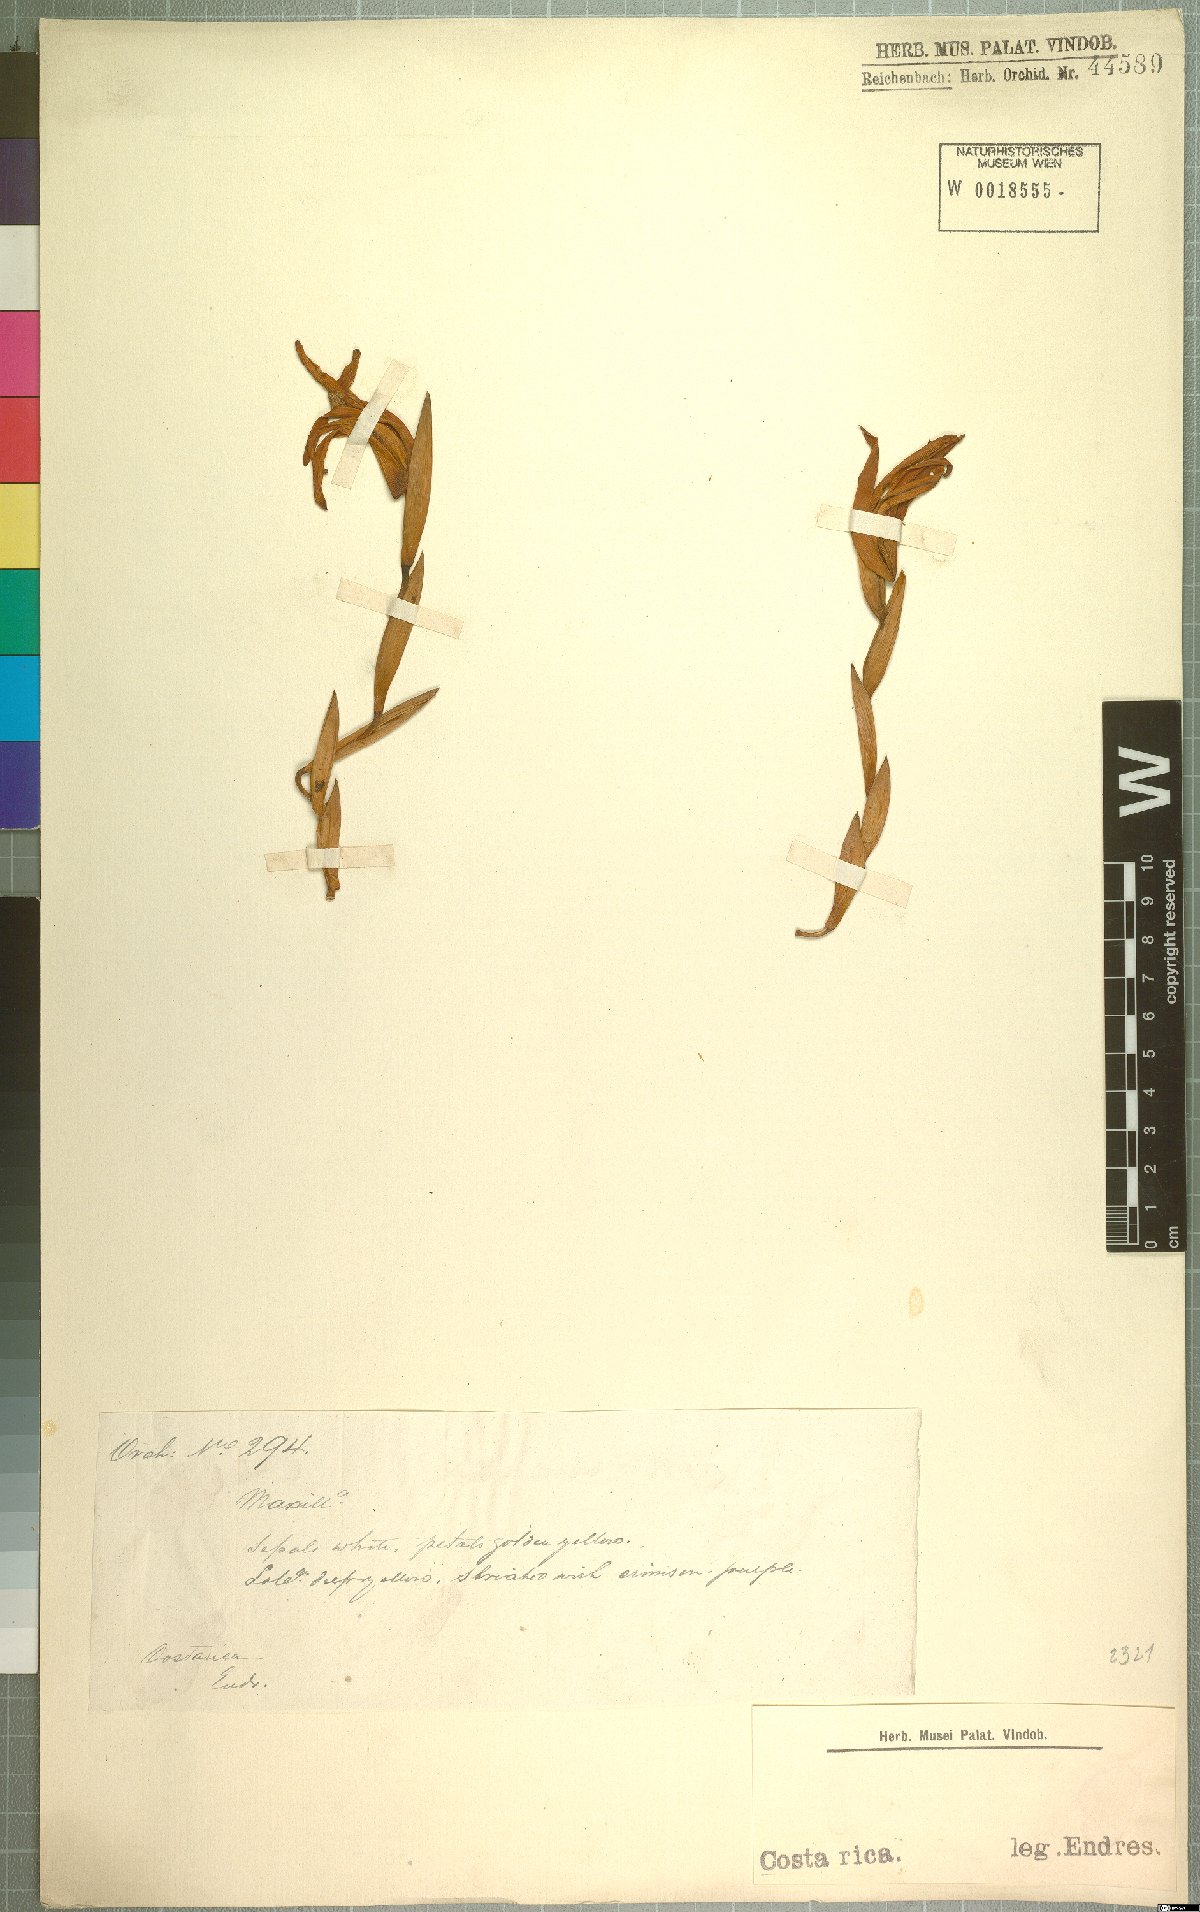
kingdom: Plantae
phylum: Tracheophyta
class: Liliopsida
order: Asparagales
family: Orchidaceae
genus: Maxillaria
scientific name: Maxillaria
